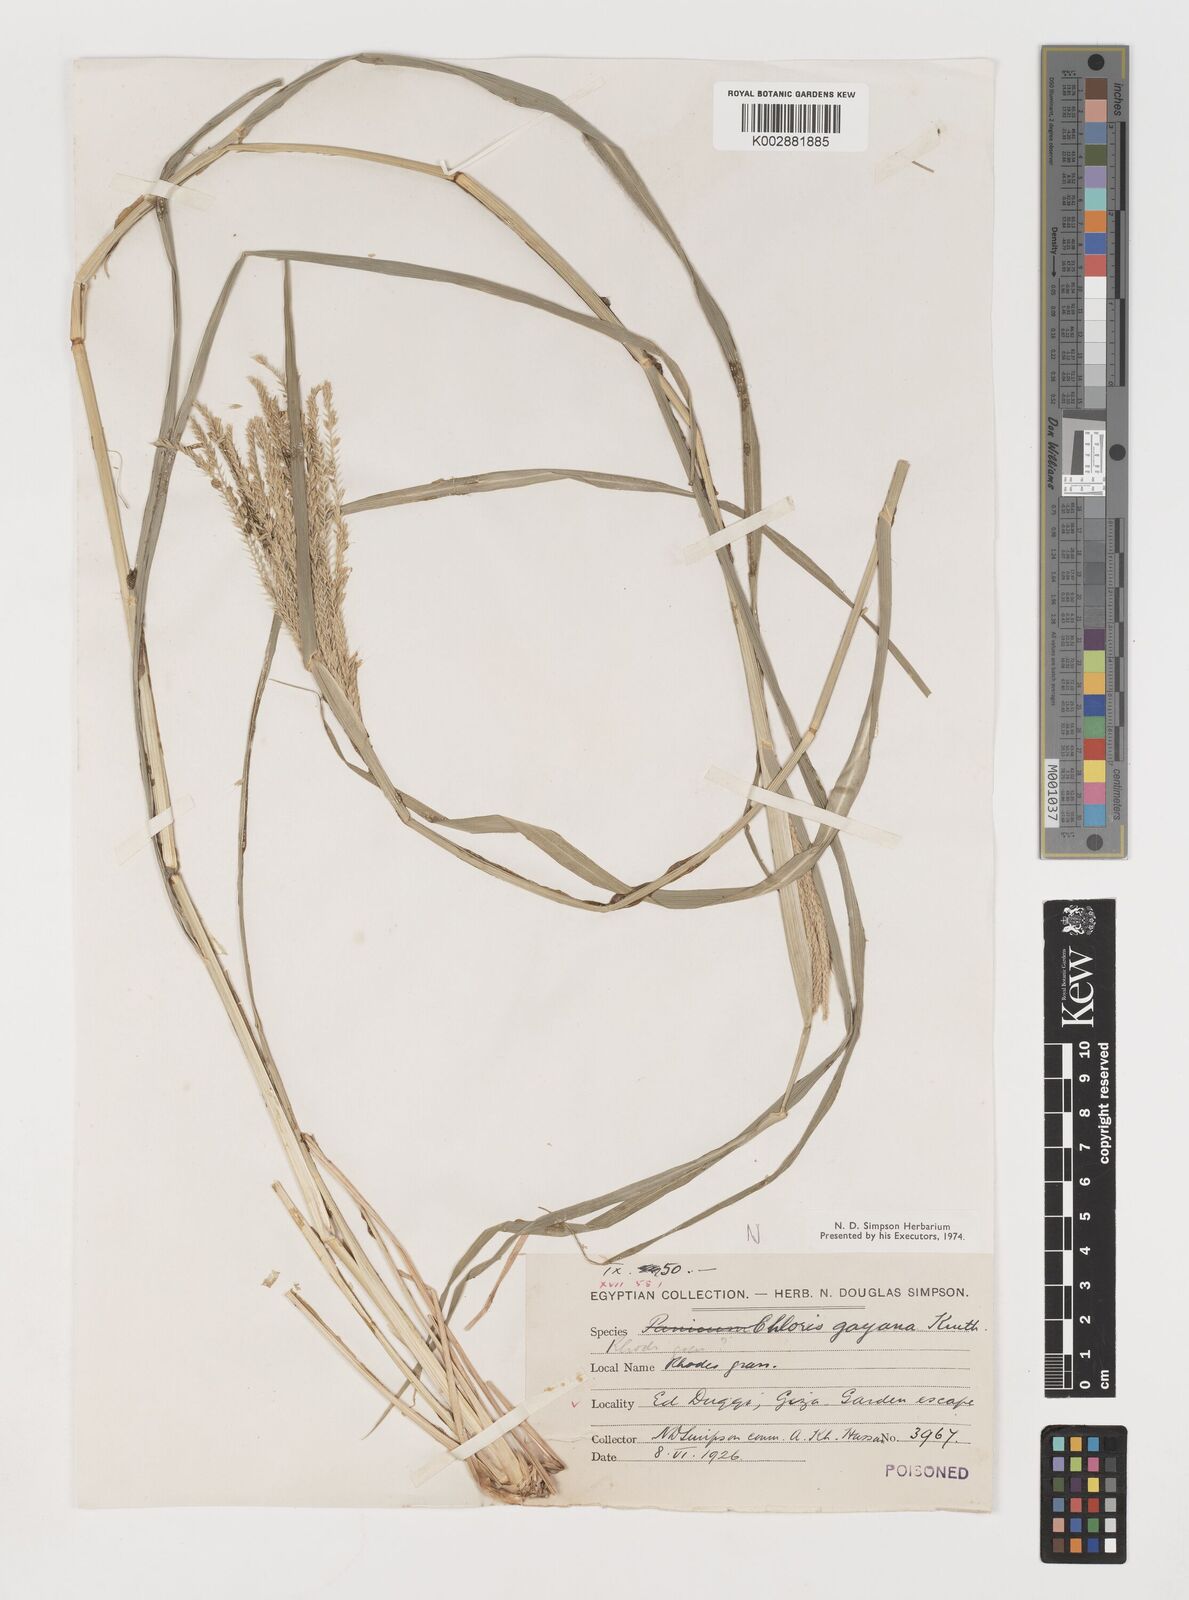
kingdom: Plantae
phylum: Tracheophyta
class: Liliopsida
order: Poales
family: Poaceae
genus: Chloris
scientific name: Chloris gayana
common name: Rhodes grass
